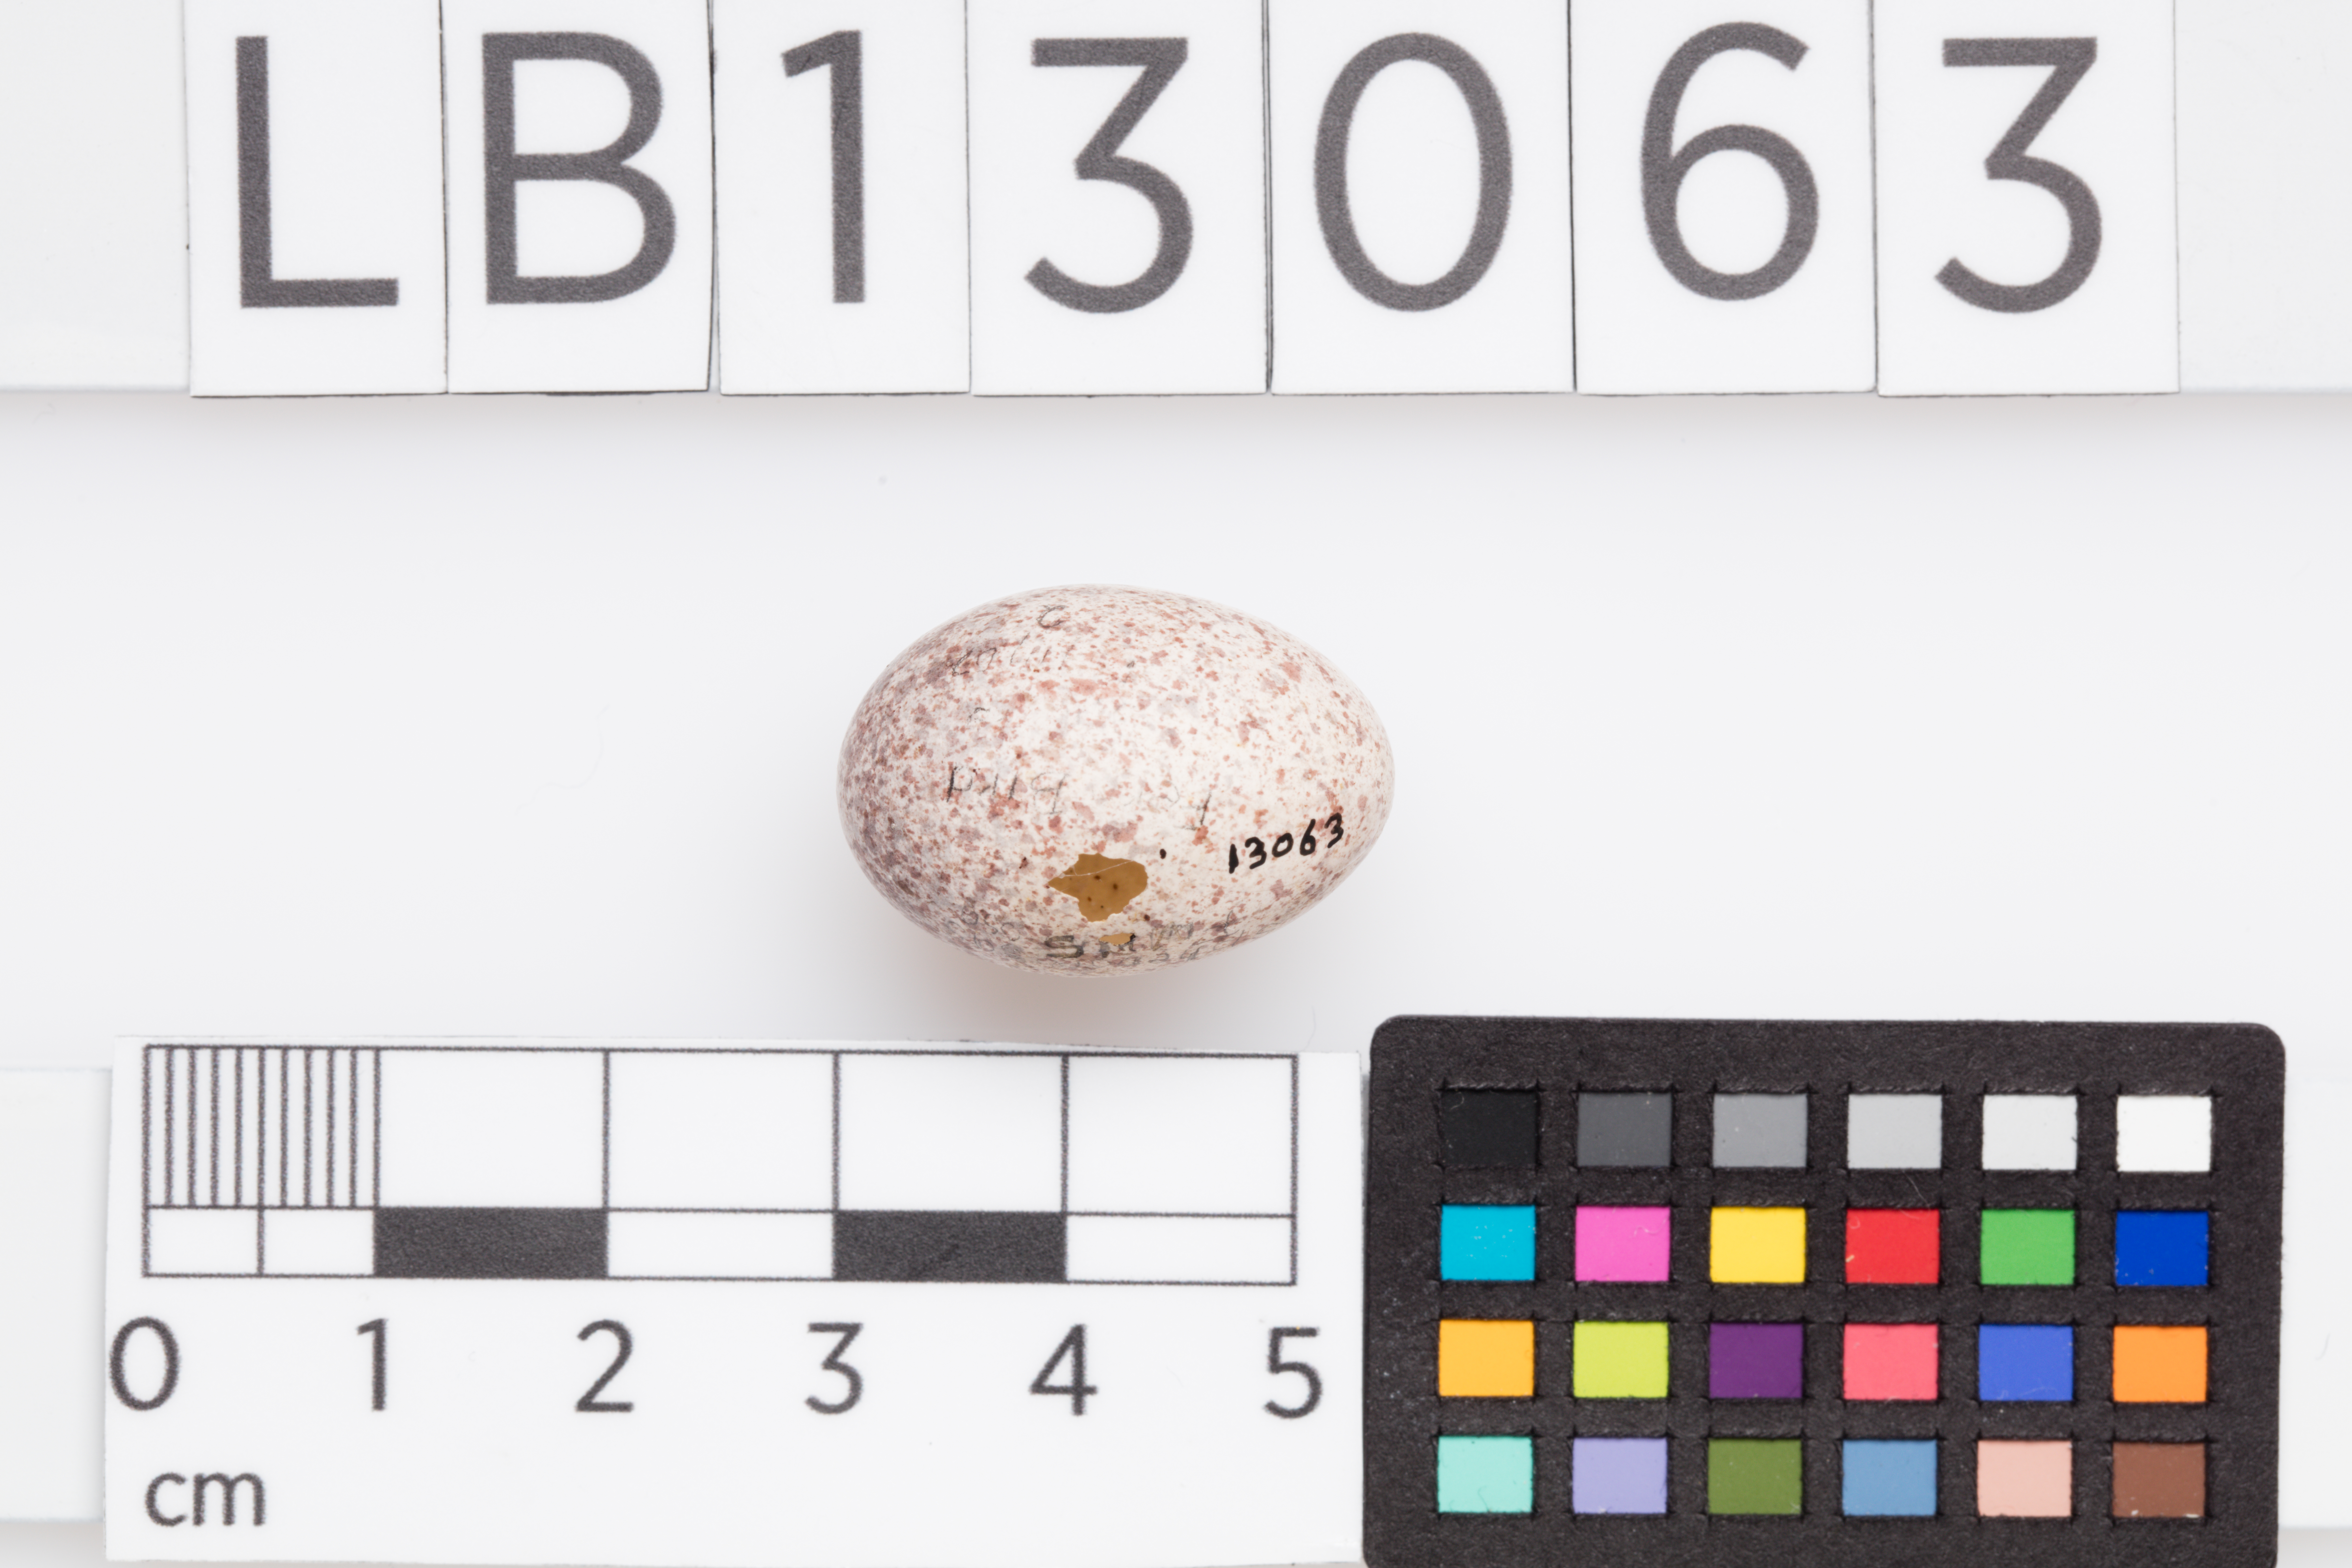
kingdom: Animalia
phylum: Chordata
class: Aves
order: Passeriformes
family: Locustellidae
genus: Megalurus
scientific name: Megalurus punctatus
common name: New zealand fernbird
